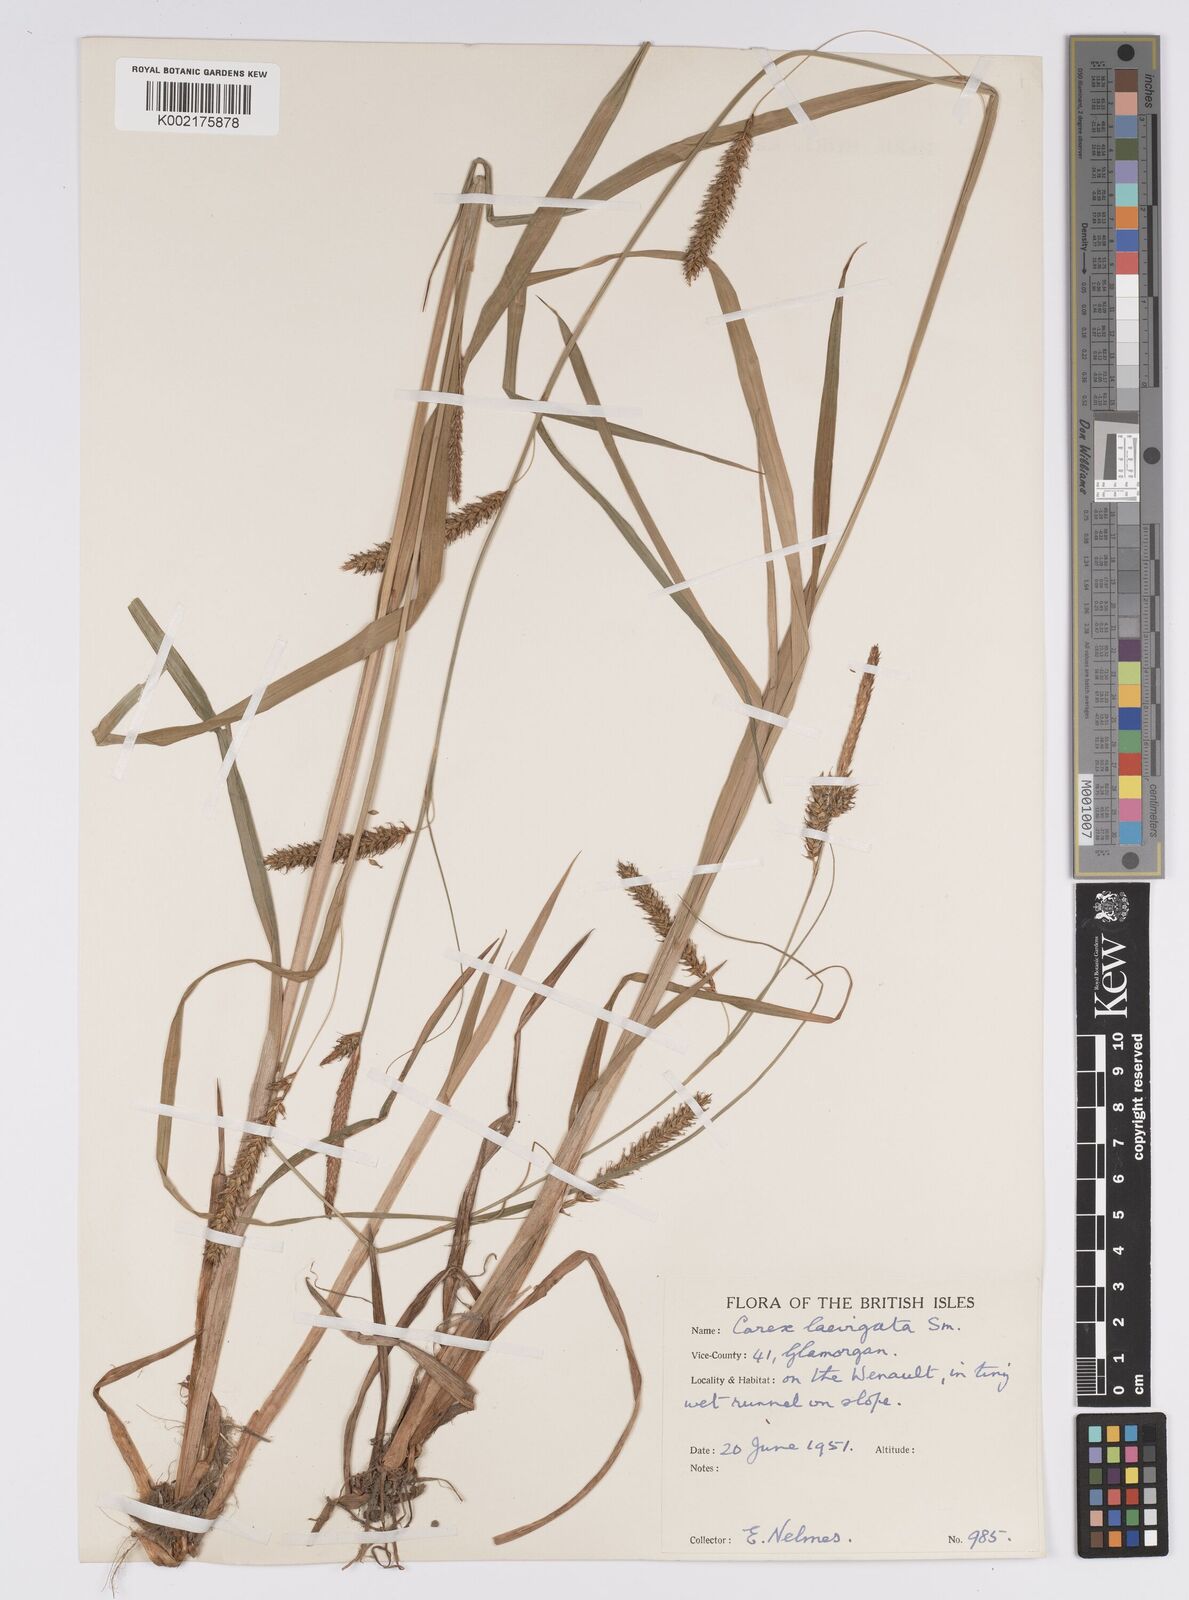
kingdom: Plantae
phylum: Tracheophyta
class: Liliopsida
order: Poales
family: Cyperaceae
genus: Carex
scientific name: Carex laevigata
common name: Smooth-stalked sedge
